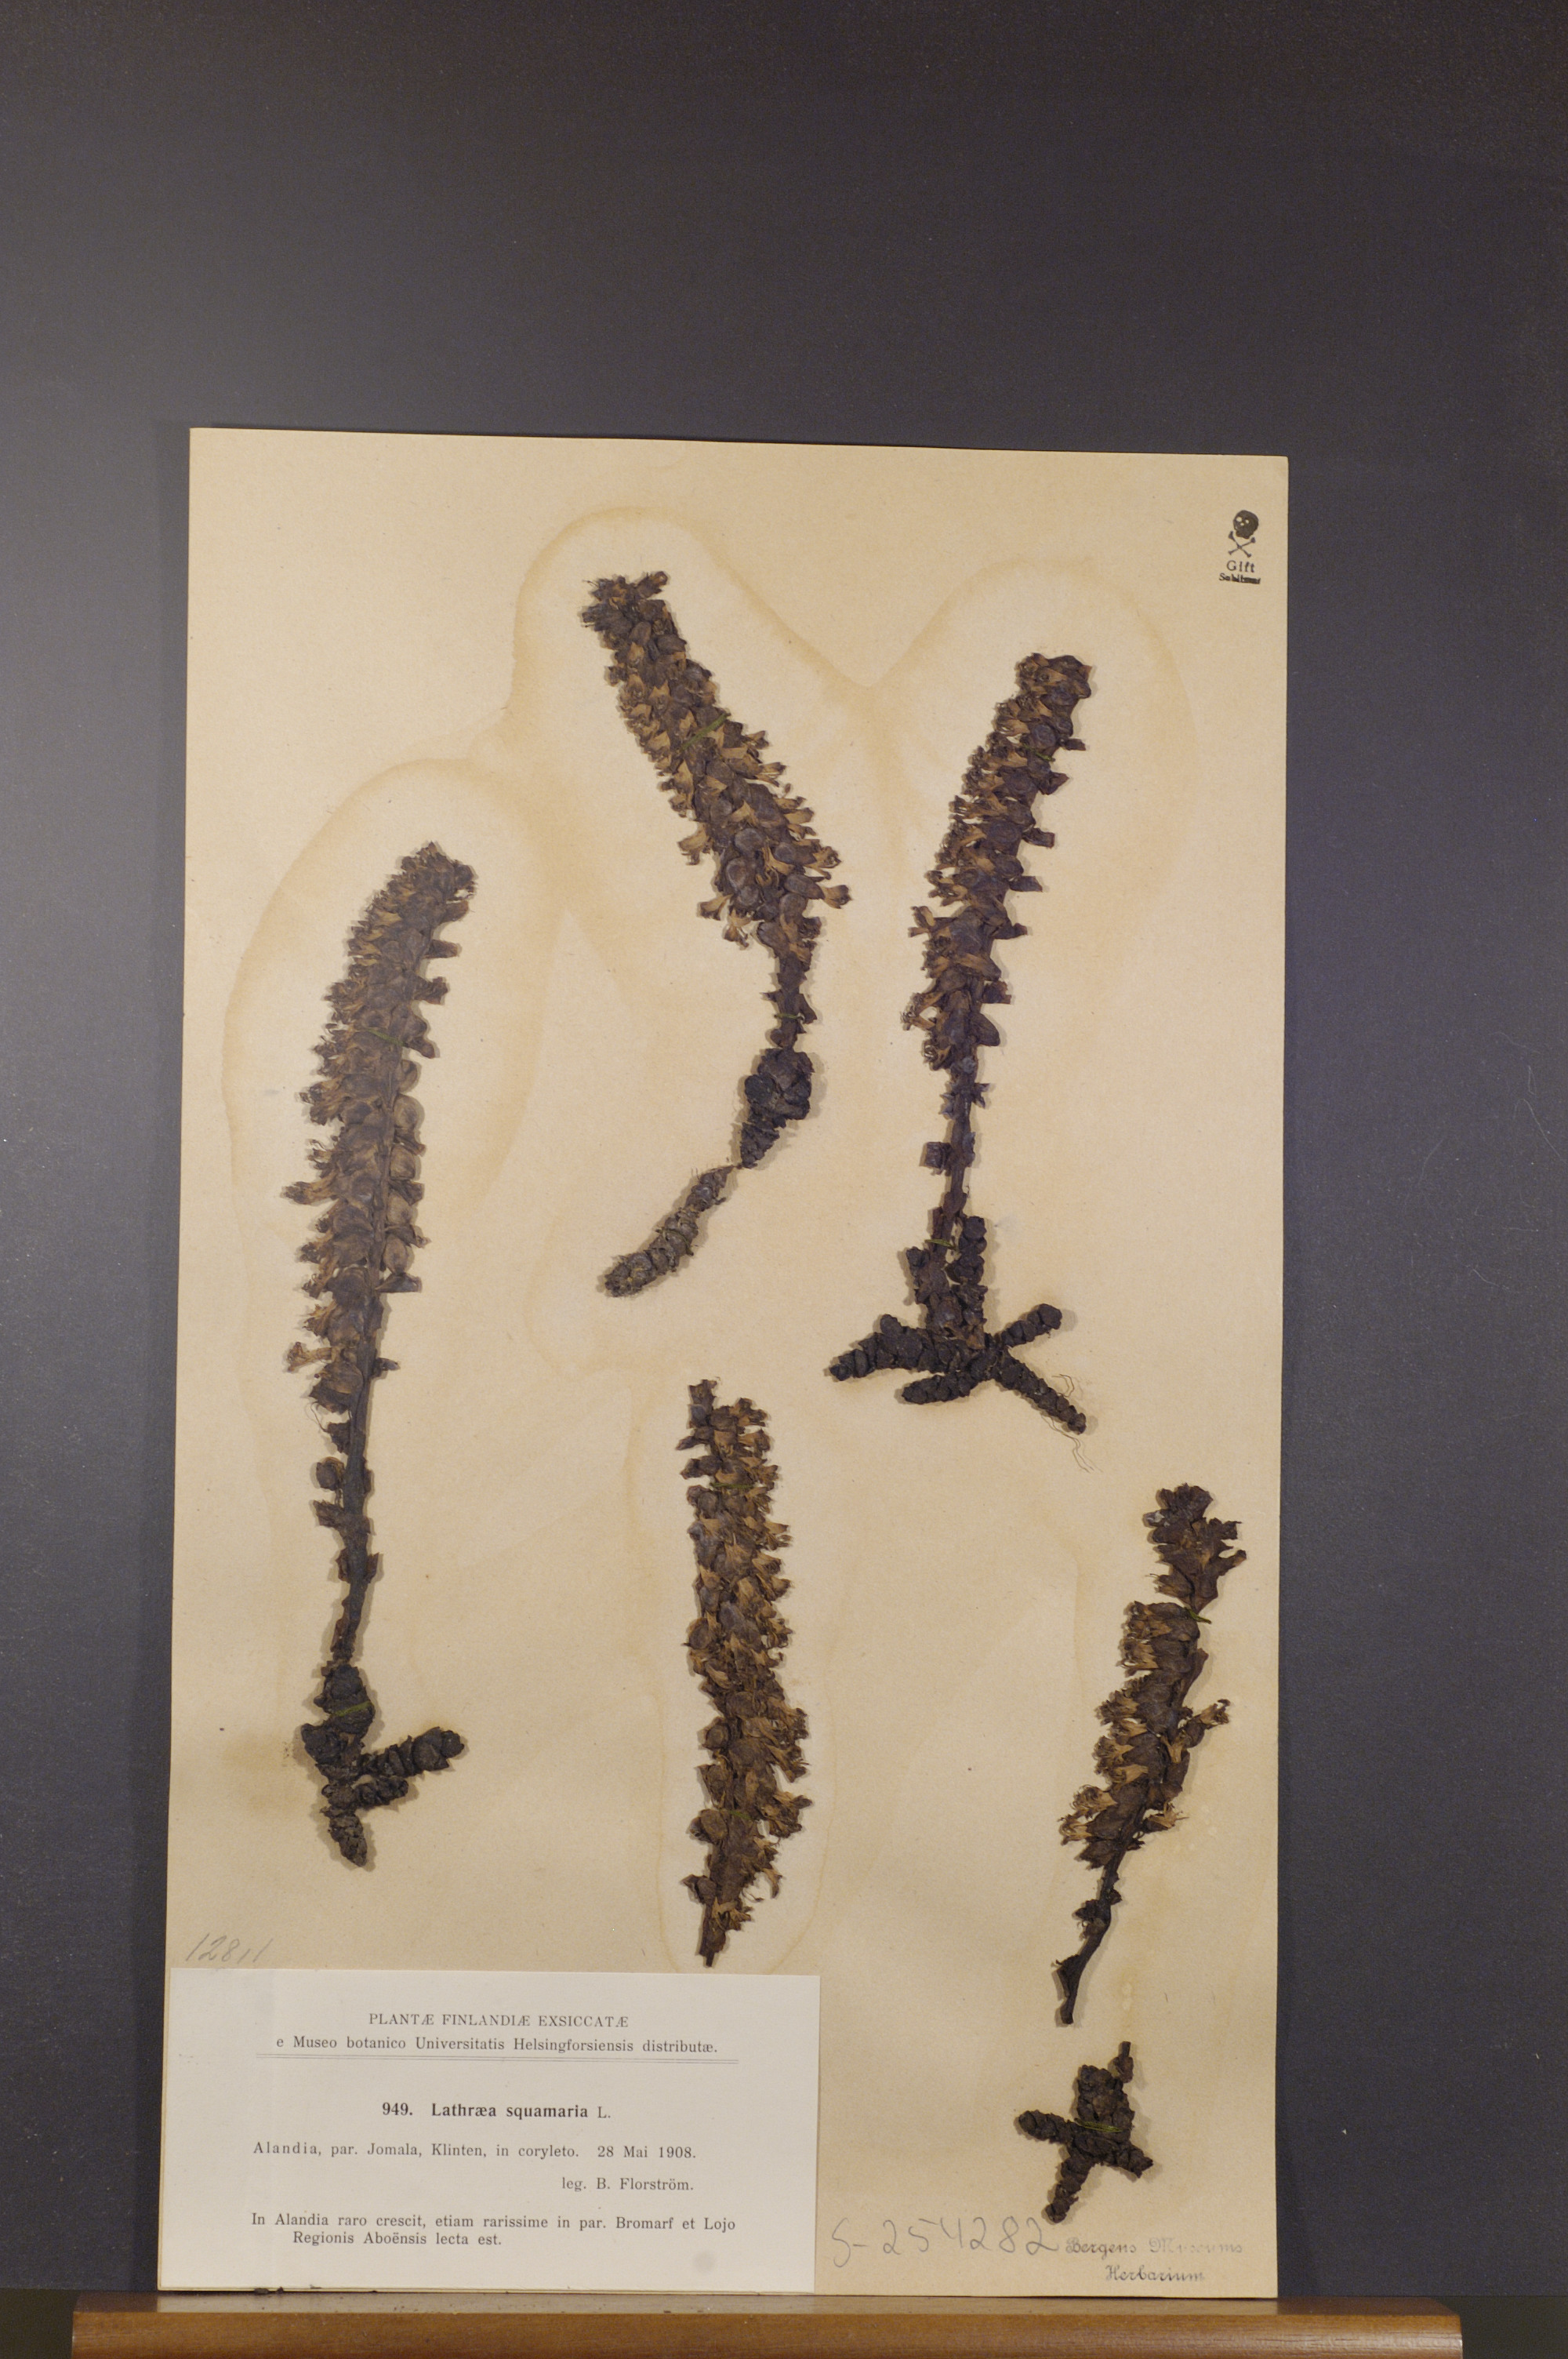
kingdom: Plantae
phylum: Tracheophyta
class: Magnoliopsida
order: Lamiales
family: Orobanchaceae
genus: Lathraea
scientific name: Lathraea squamaria
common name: Toothwort
